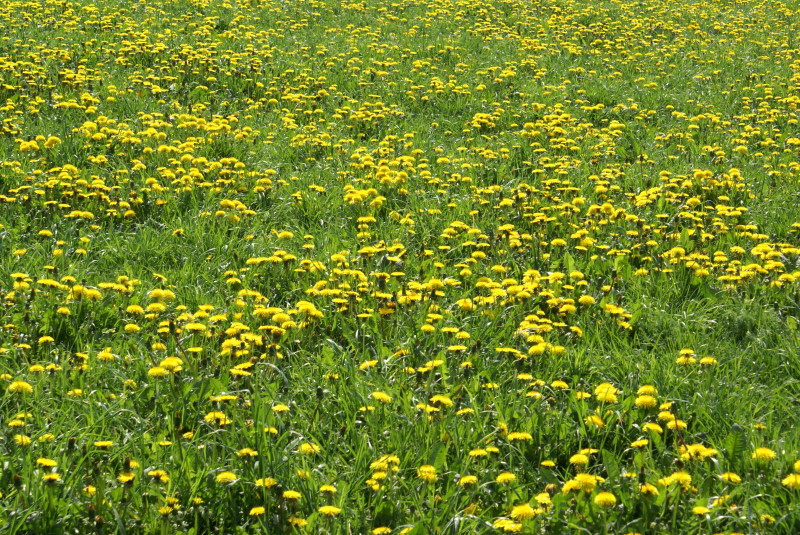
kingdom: Plantae
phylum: Tracheophyta
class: Magnoliopsida
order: Asterales
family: Asteraceae
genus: Taraxacum
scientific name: Taraxacum officinale
